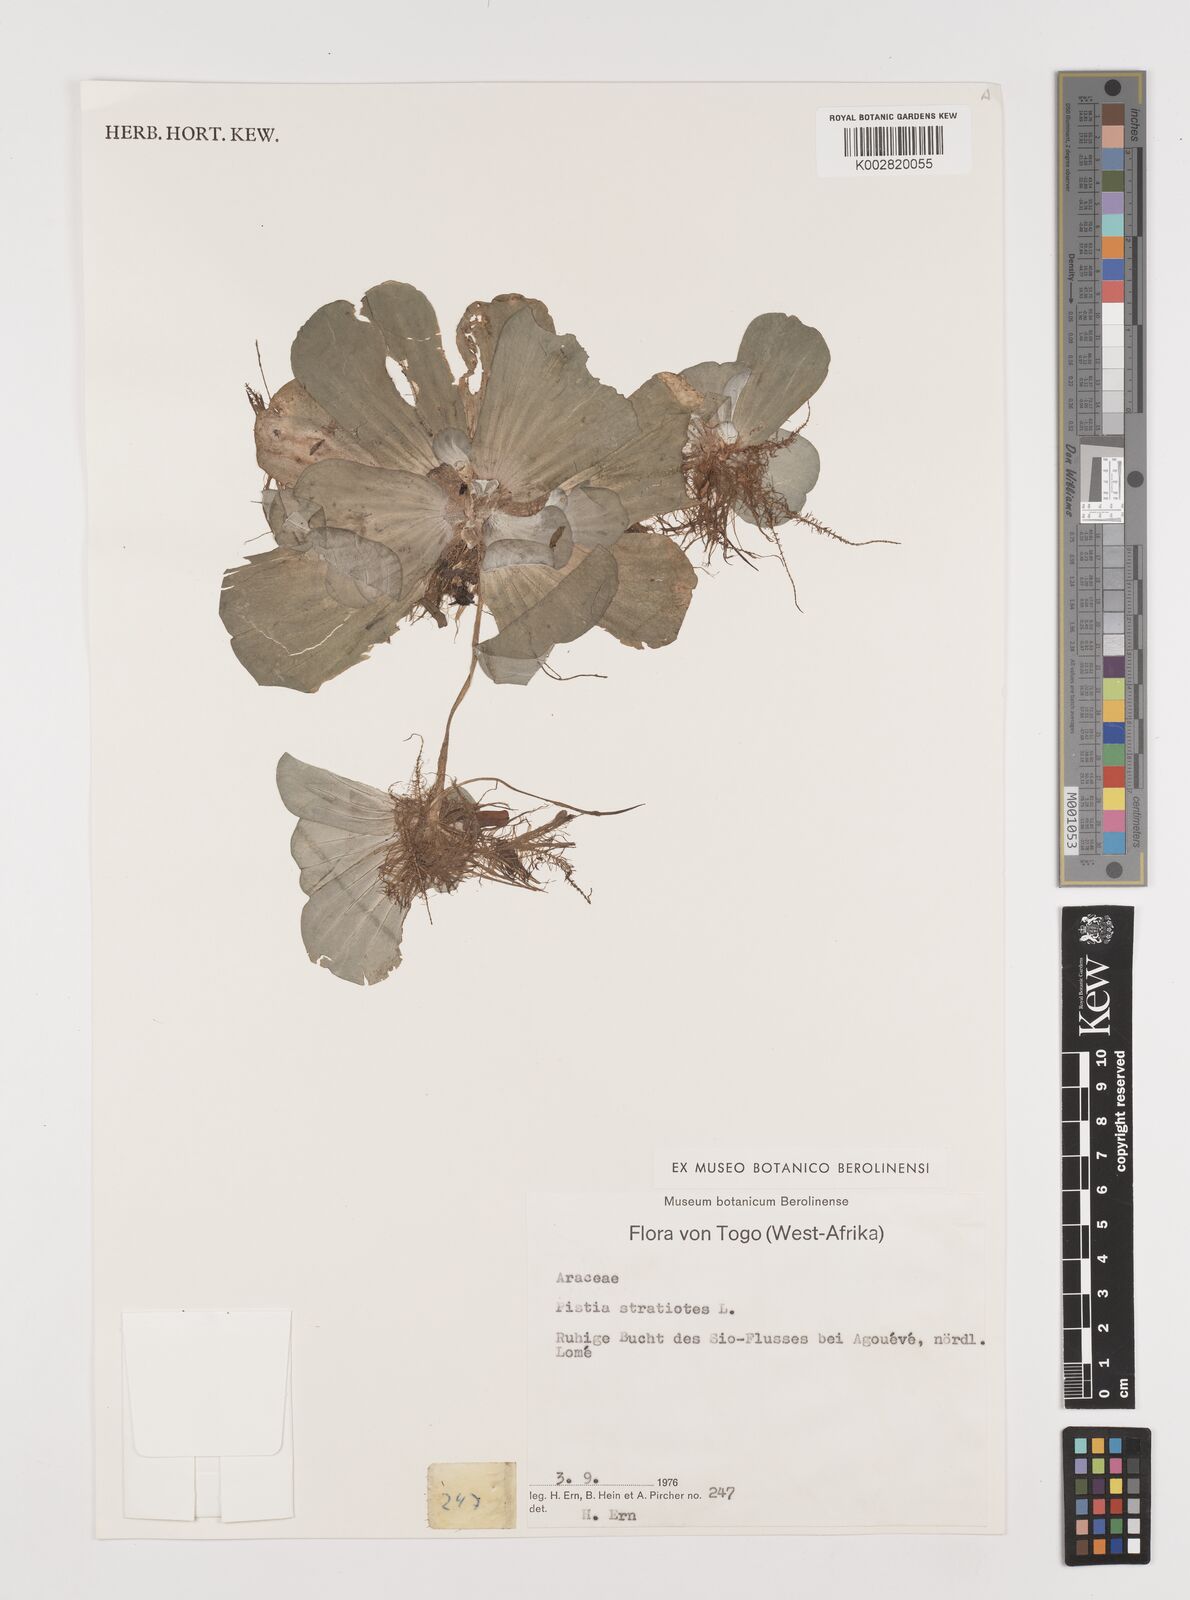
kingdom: Plantae
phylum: Tracheophyta
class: Liliopsida
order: Alismatales
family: Araceae
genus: Pistia
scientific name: Pistia stratiotes
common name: Water lettuce
